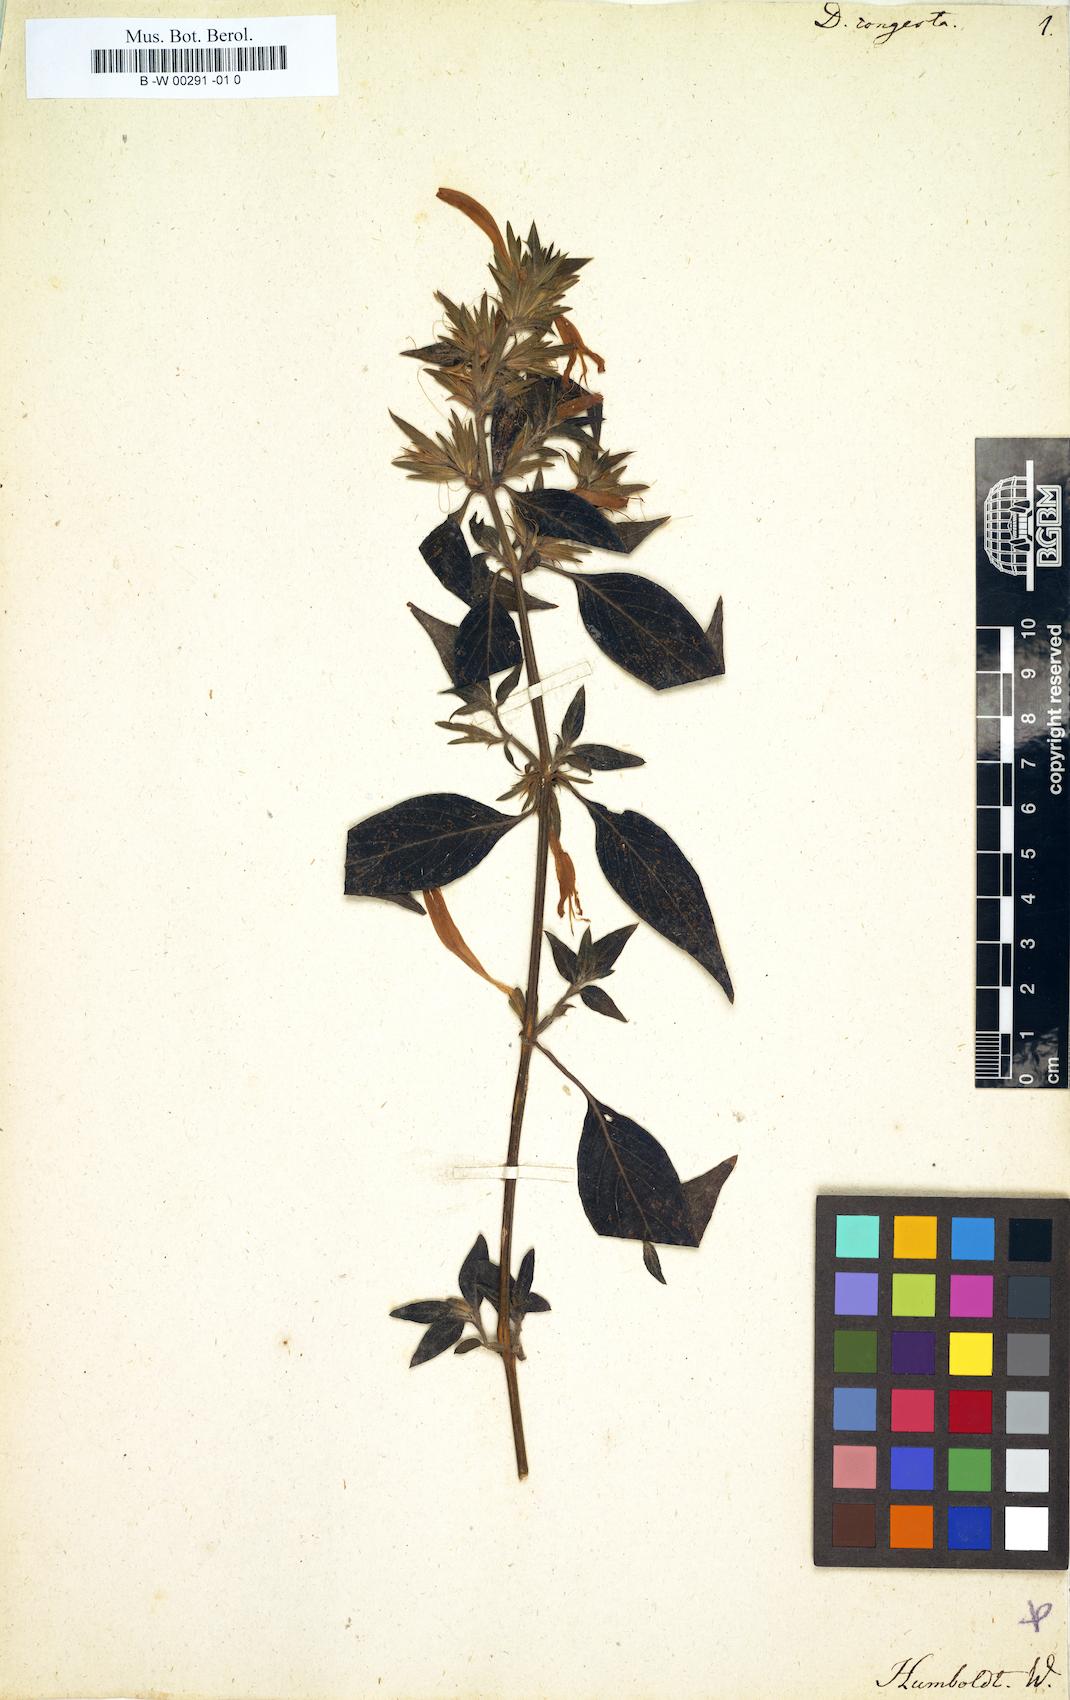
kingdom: Plantae
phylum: Tracheophyta
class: Magnoliopsida
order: Lamiales
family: Acanthaceae
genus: Dicliptera
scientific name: Dicliptera congesta
